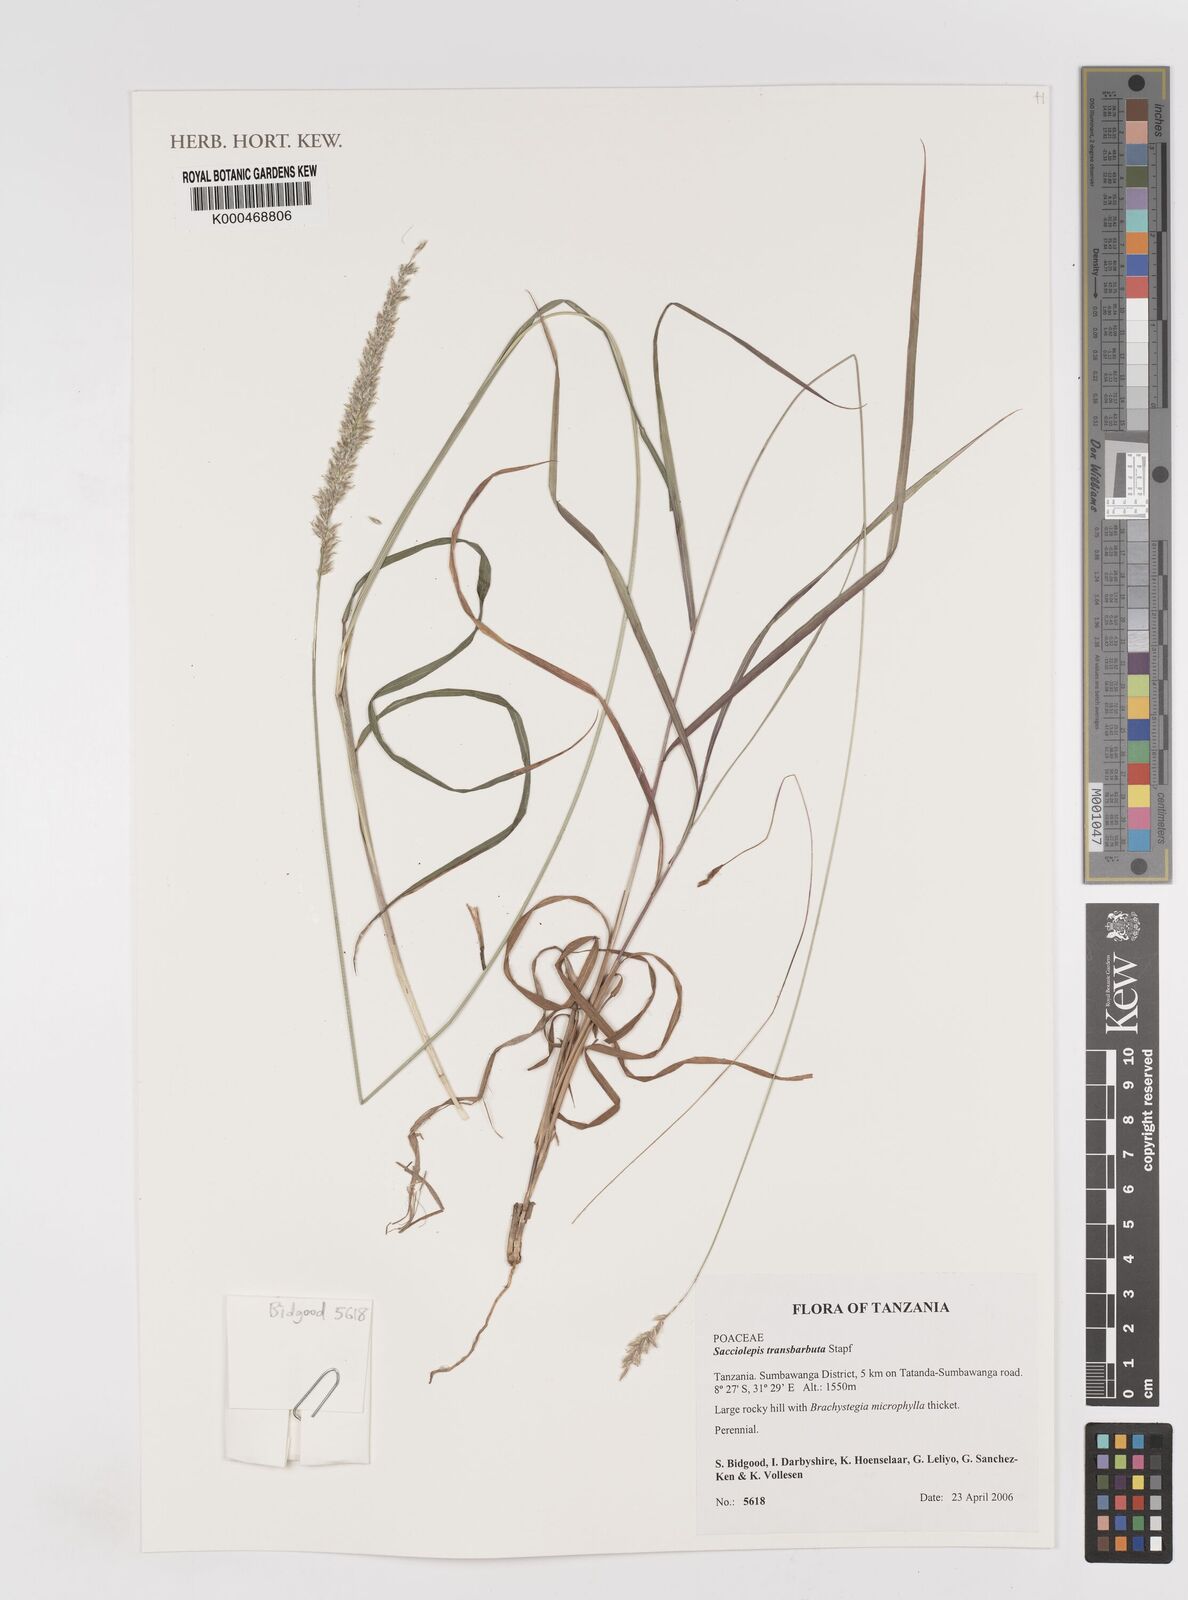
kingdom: Plantae
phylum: Tracheophyta
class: Liliopsida
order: Poales
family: Poaceae
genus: Sacciolepis
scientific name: Sacciolepis
